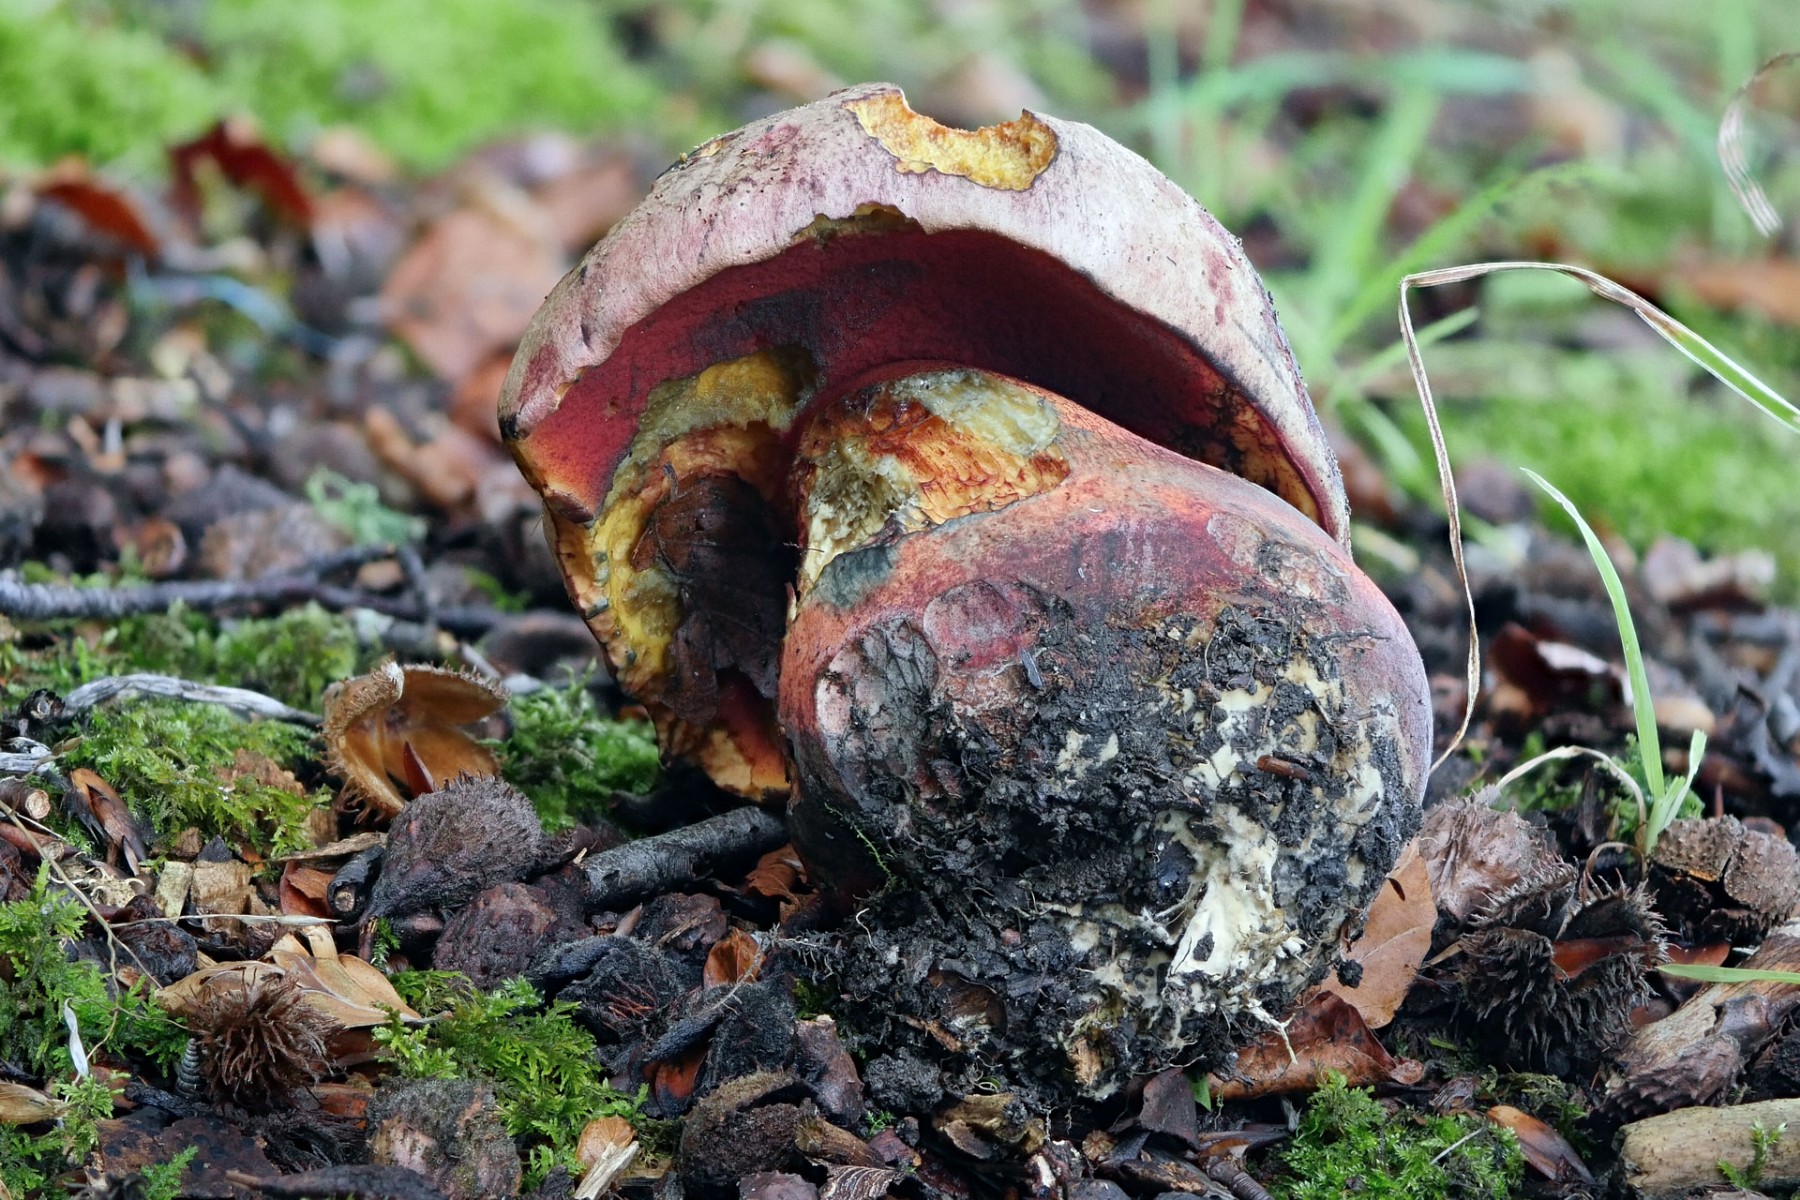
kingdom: Fungi
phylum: Basidiomycota
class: Agaricomycetes
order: Boletales
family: Boletaceae
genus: Rubroboletus
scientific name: Rubroboletus legaliae
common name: djævle-rørhat
